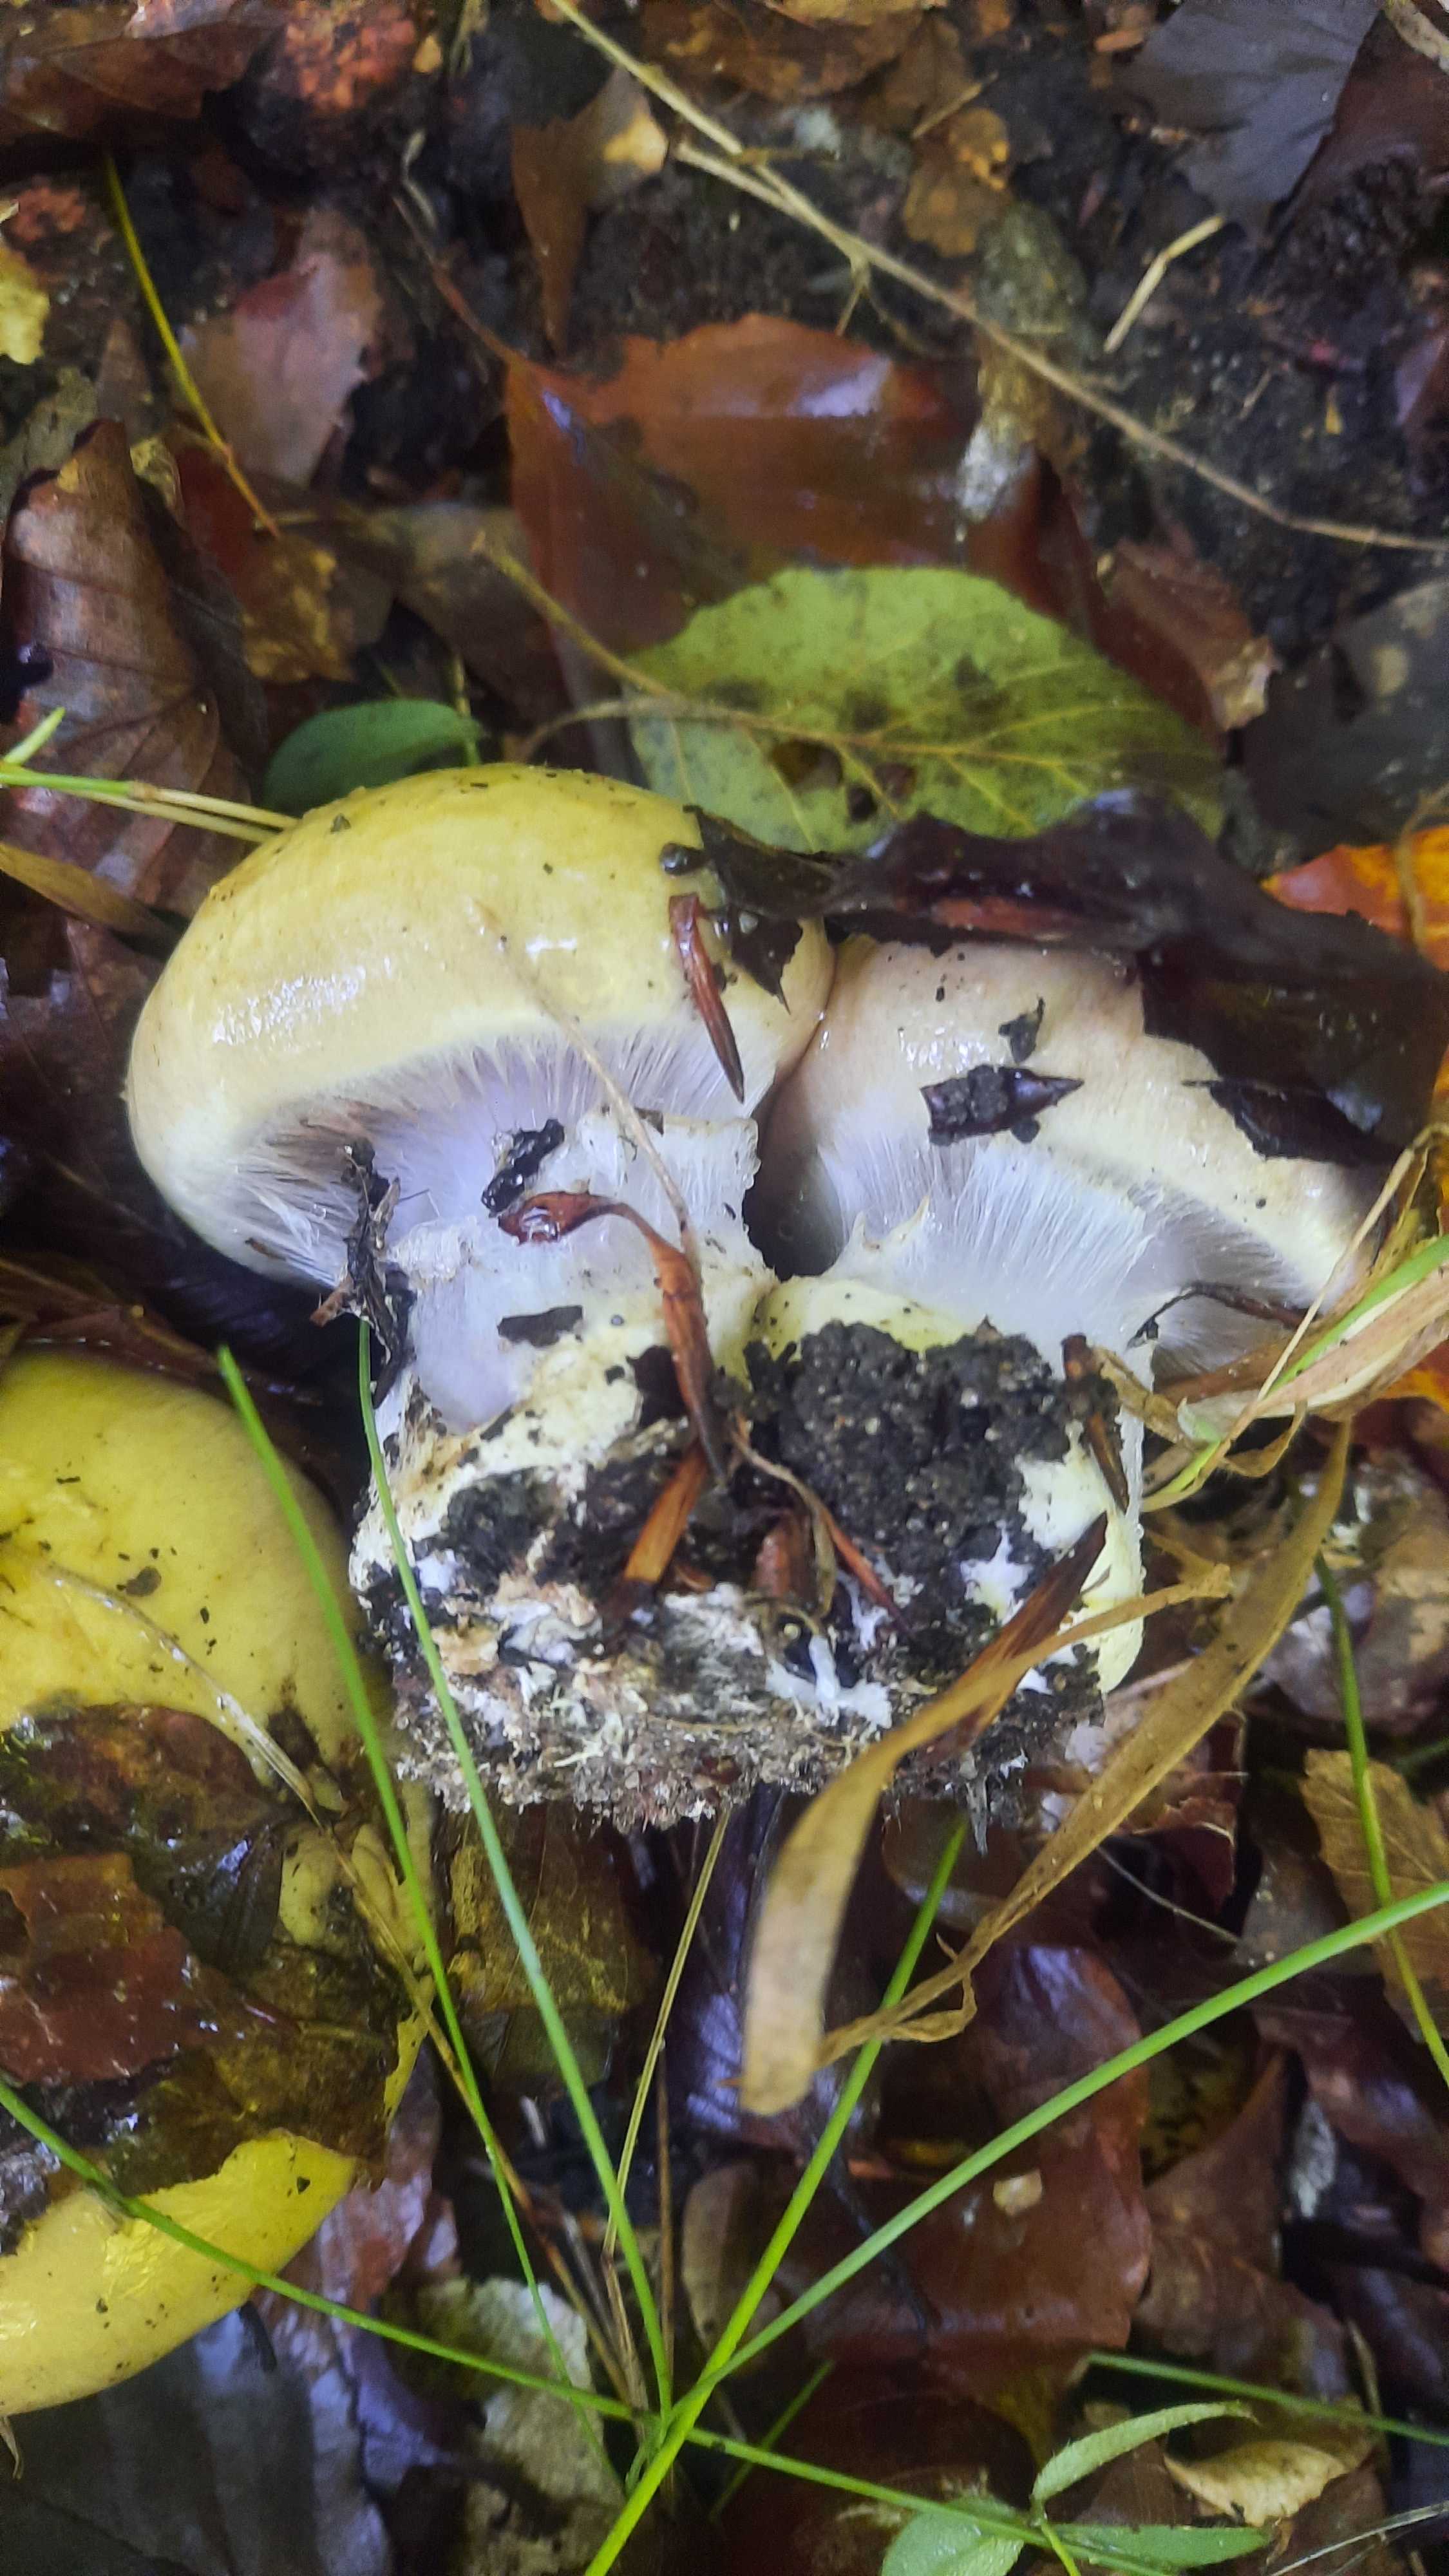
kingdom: Fungi
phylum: Basidiomycota
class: Agaricomycetes
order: Agaricales
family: Cortinariaceae
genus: Cortinarius
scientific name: Cortinarius anserinus
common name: bøge-slørhat
